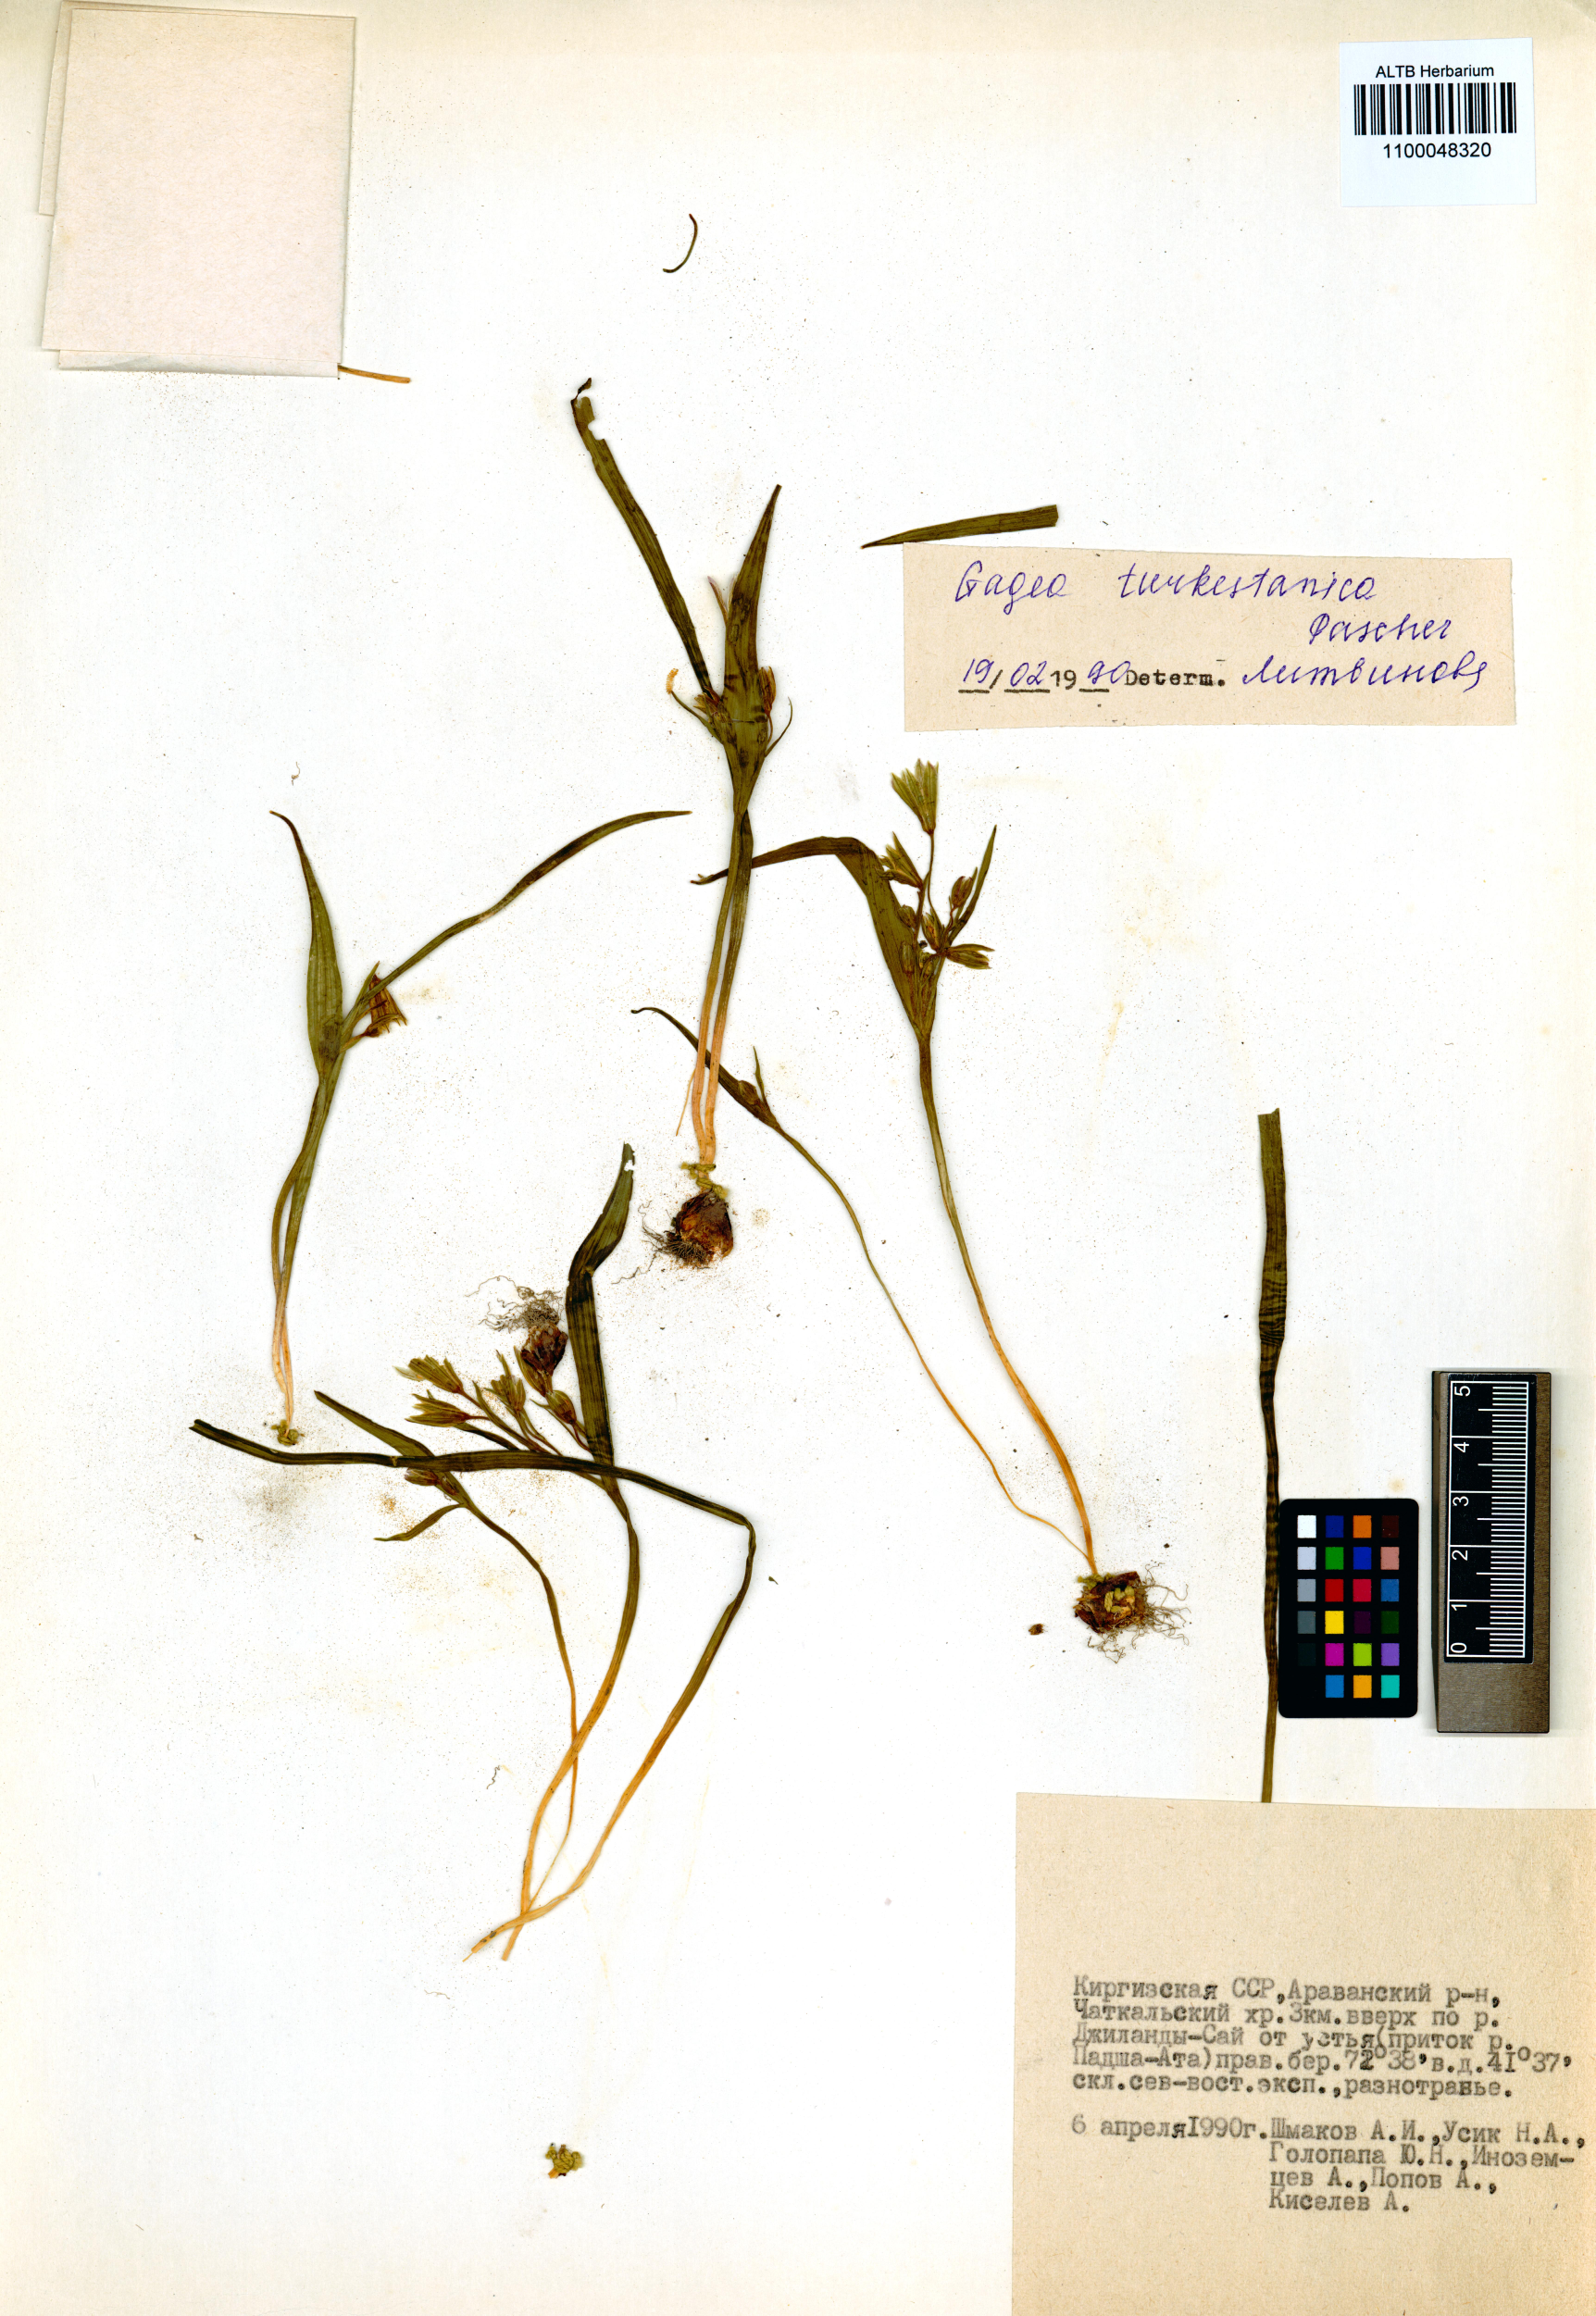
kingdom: Plantae
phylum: Tracheophyta
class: Liliopsida
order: Liliales
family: Liliaceae
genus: Gagea
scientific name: Gagea capusii
